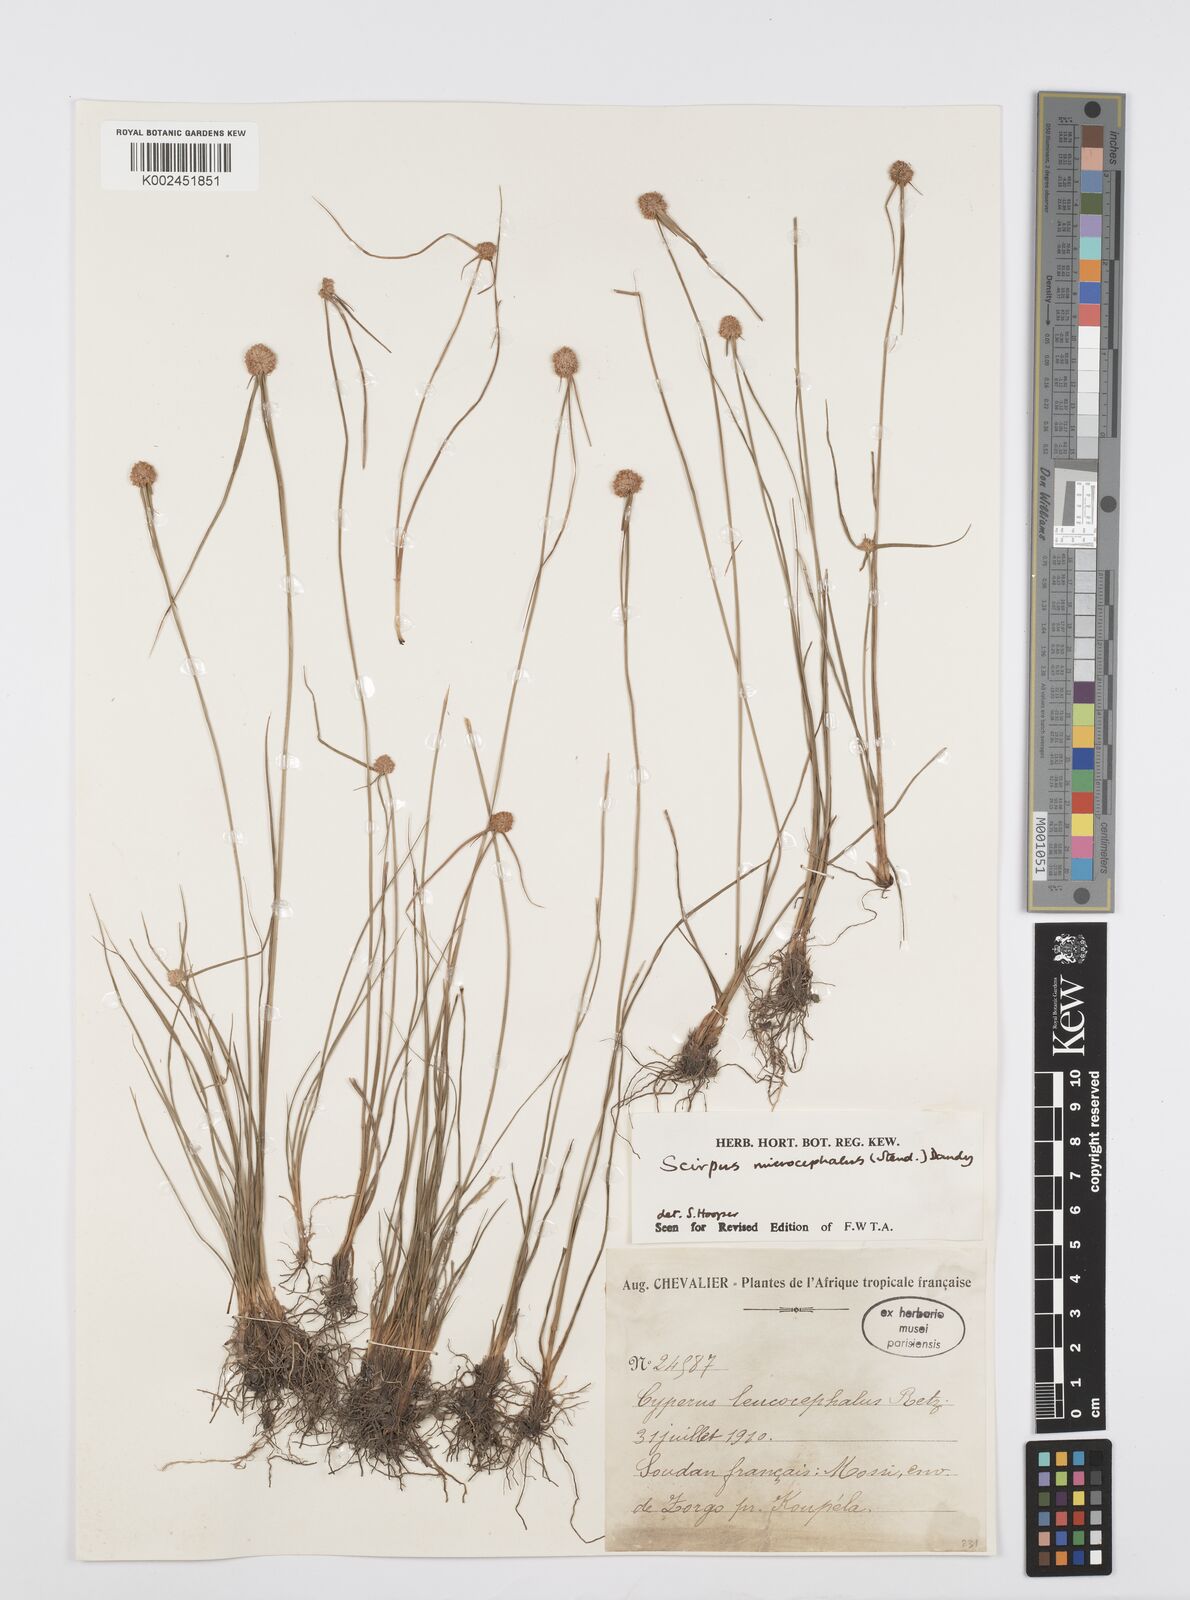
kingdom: Plantae
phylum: Tracheophyta
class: Liliopsida
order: Poales
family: Cyperaceae
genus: Cyperus
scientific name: Cyperus microcephalus
